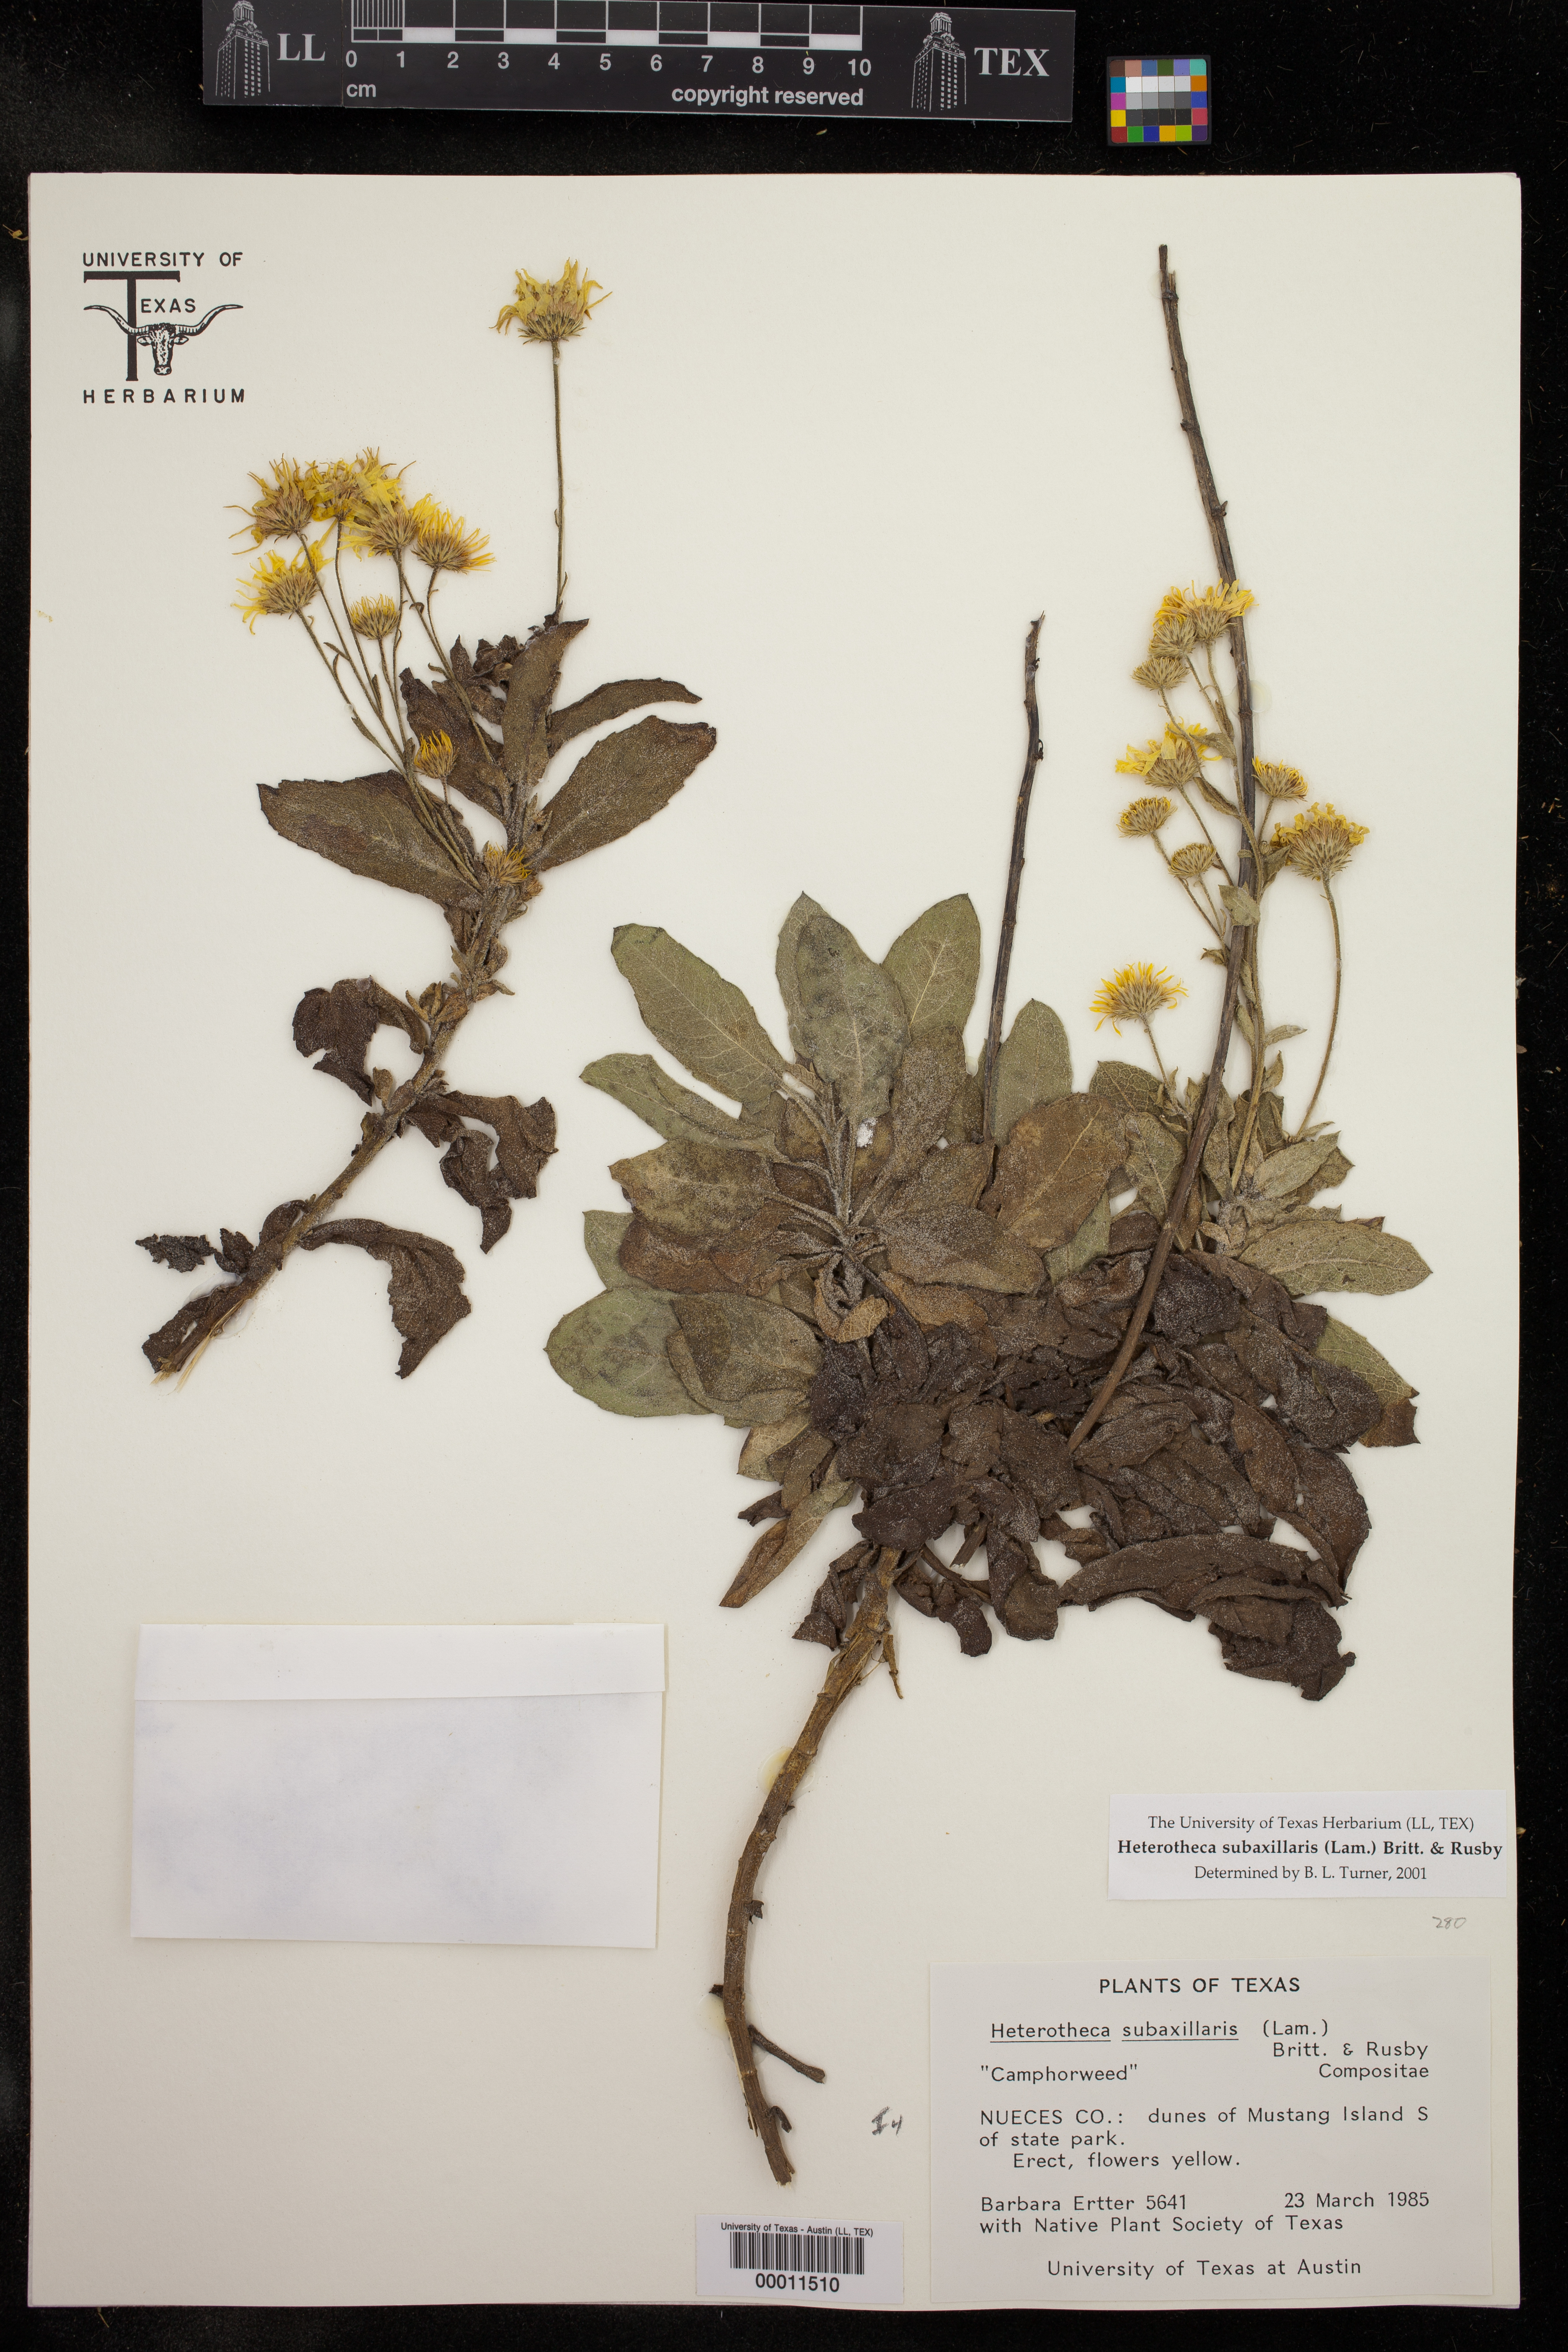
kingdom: Plantae
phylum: Tracheophyta
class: Magnoliopsida
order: Asterales
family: Asteraceae
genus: Heterotheca
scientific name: Heterotheca subaxillaris
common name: Camphorweed
